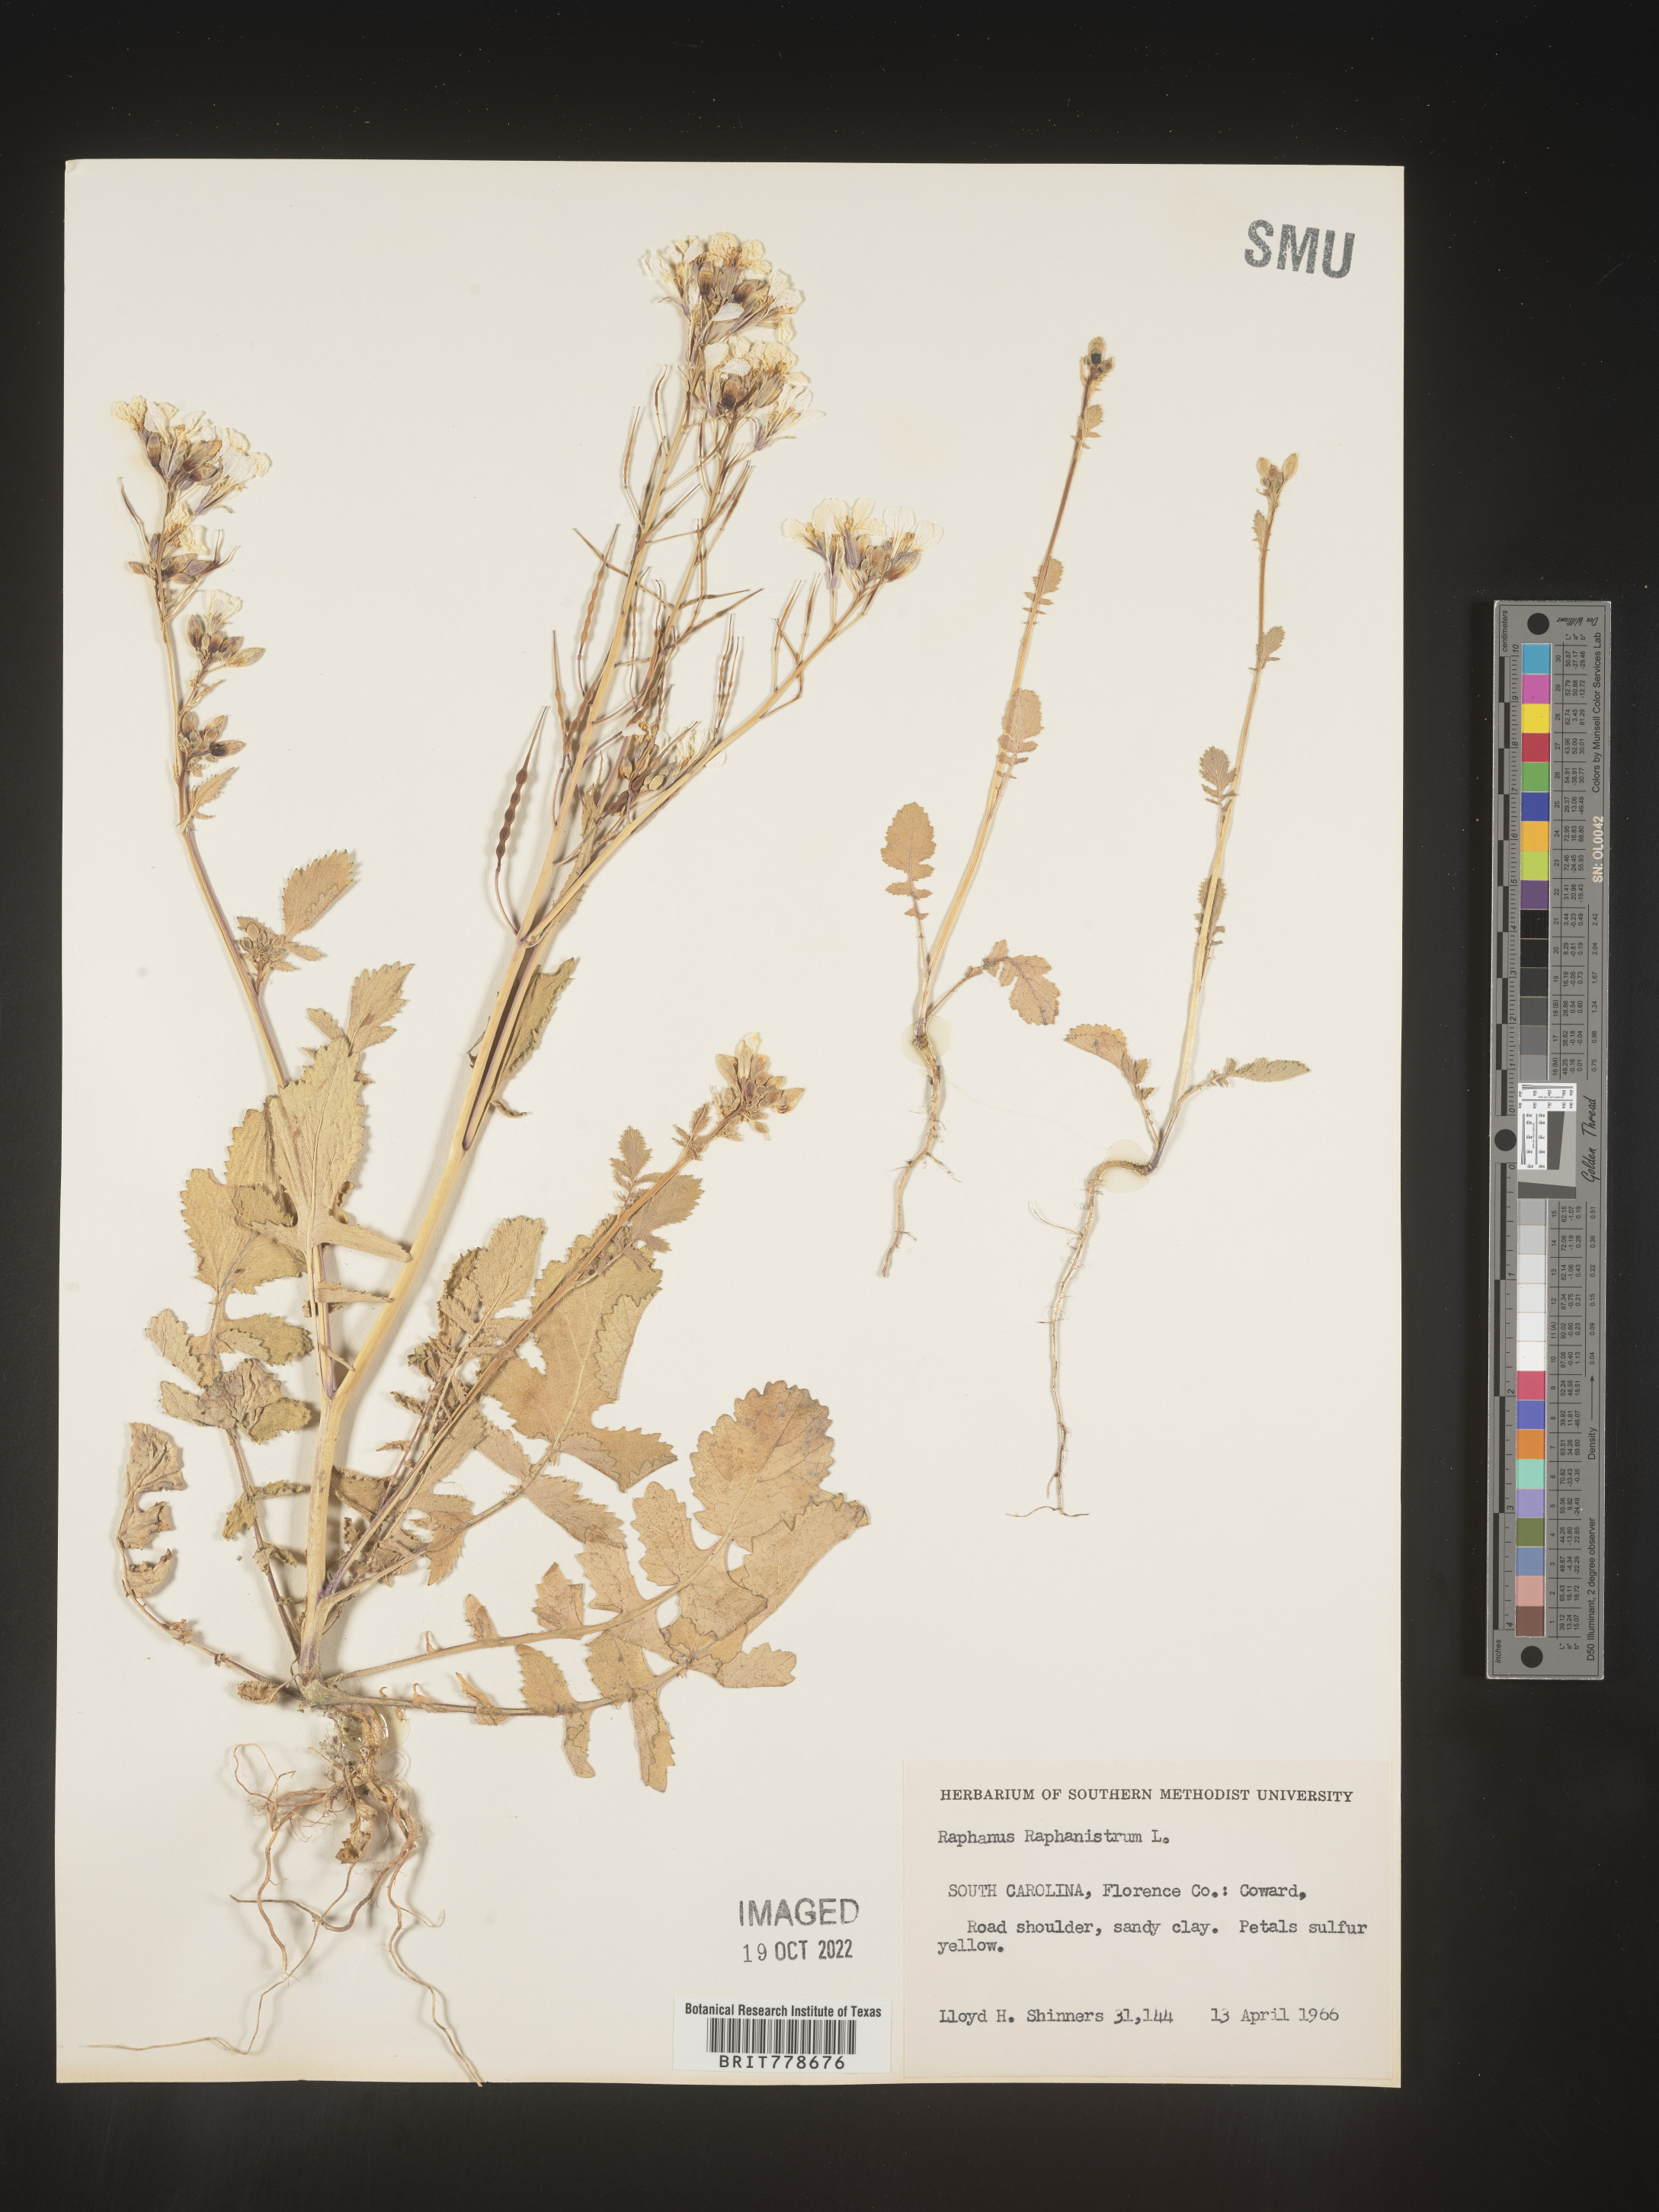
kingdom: Plantae
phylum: Tracheophyta
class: Magnoliopsida
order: Brassicales
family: Brassicaceae
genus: Raphanus
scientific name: Raphanus raphanistrum
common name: Wild radish
